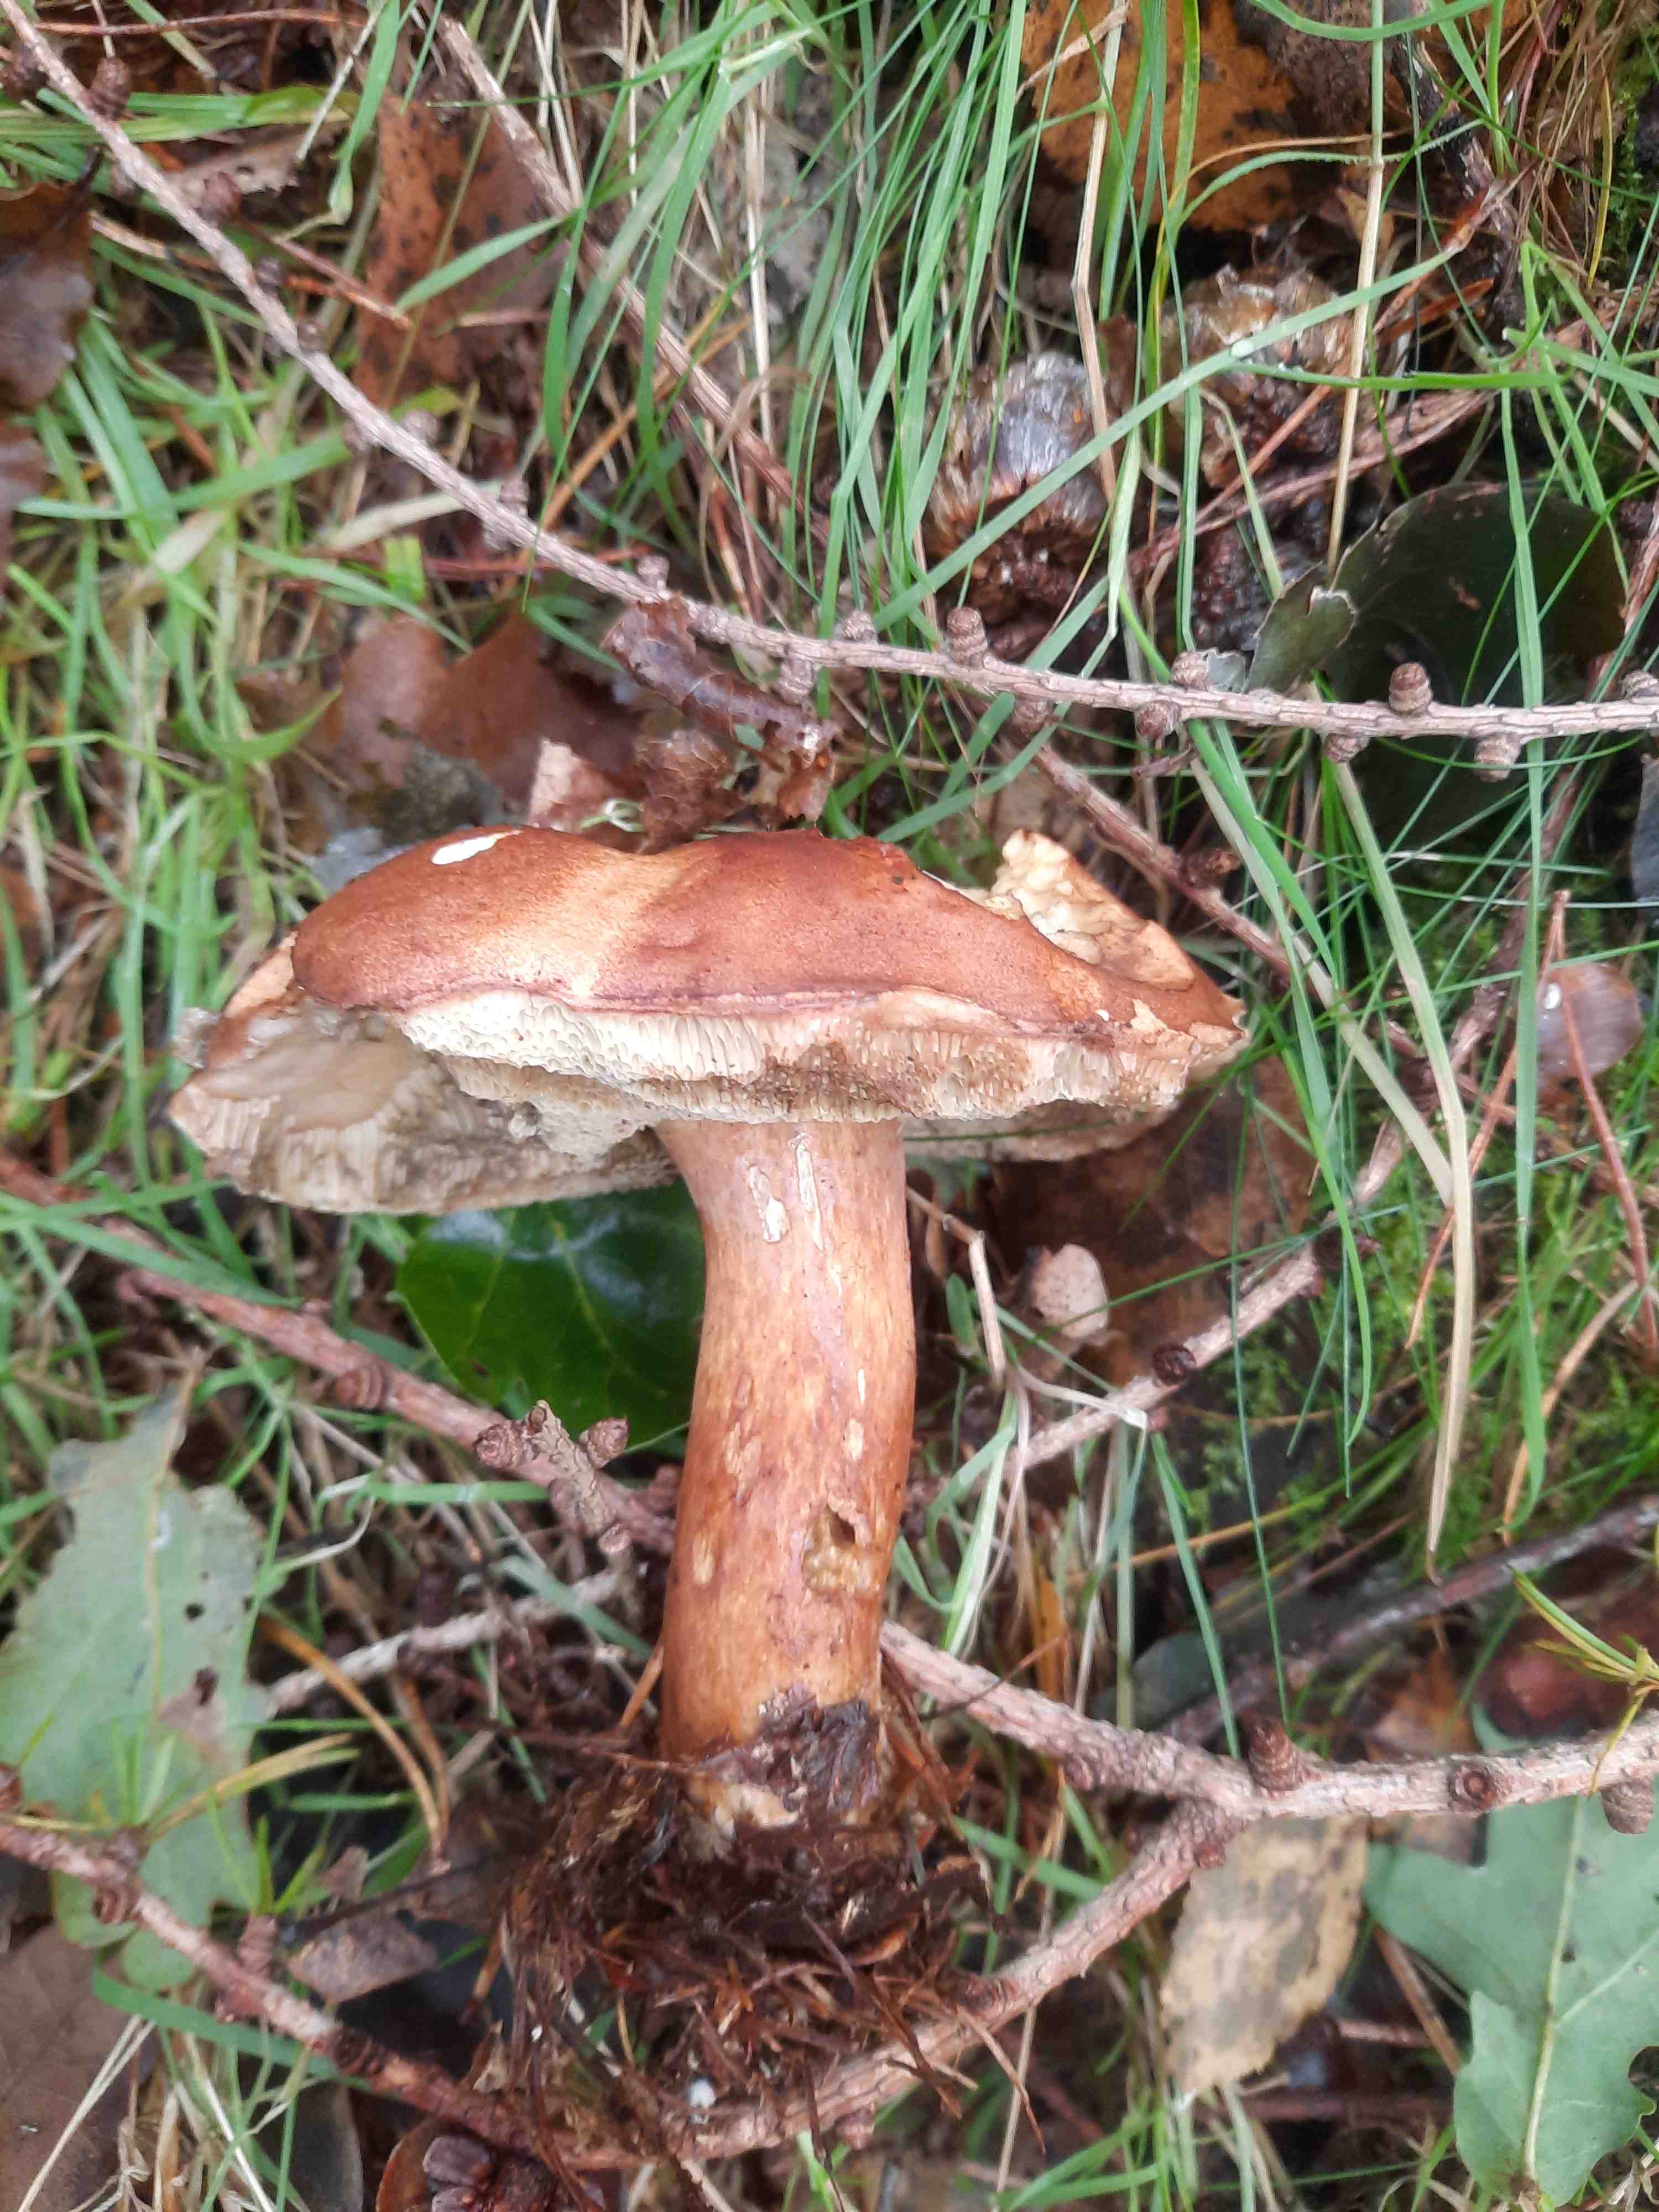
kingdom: Fungi
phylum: Basidiomycota
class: Agaricomycetes
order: Boletales
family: Boletaceae
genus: Imleria
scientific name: Imleria badia
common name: brunstokket rørhat
